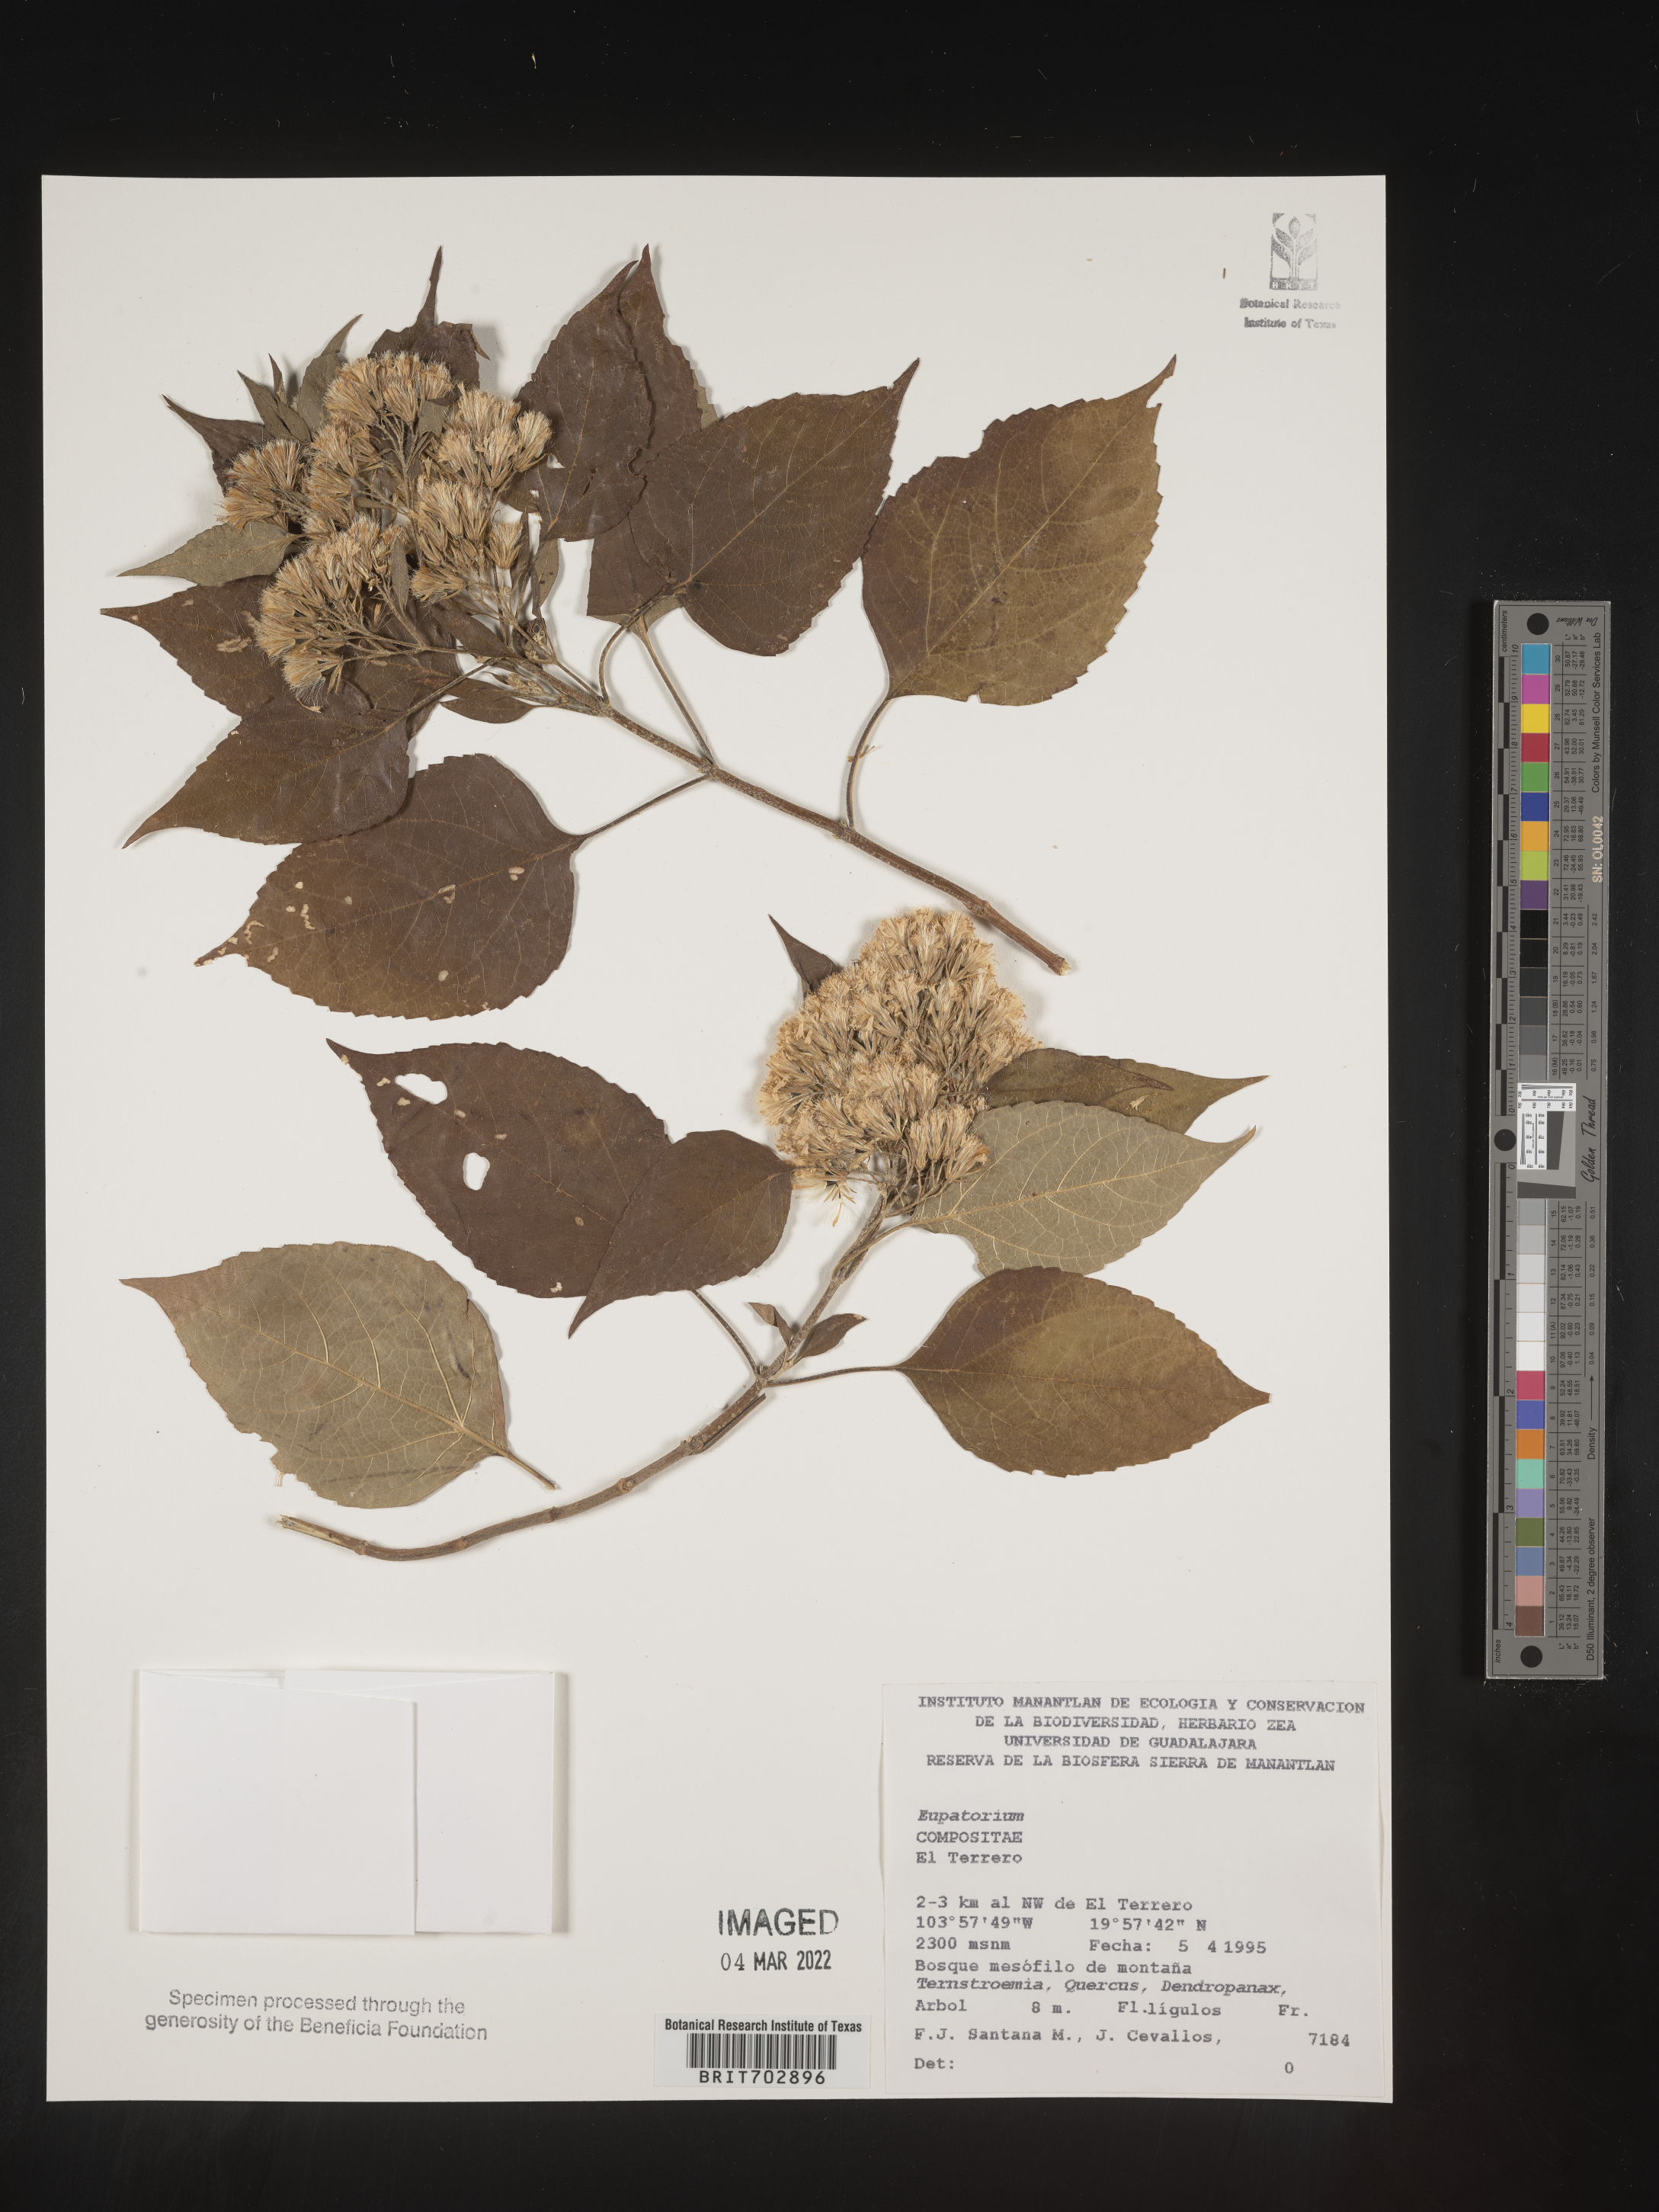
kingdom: Plantae
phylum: Tracheophyta
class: Magnoliopsida
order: Asterales
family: Asteraceae
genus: Eupatorium
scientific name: Eupatorium
